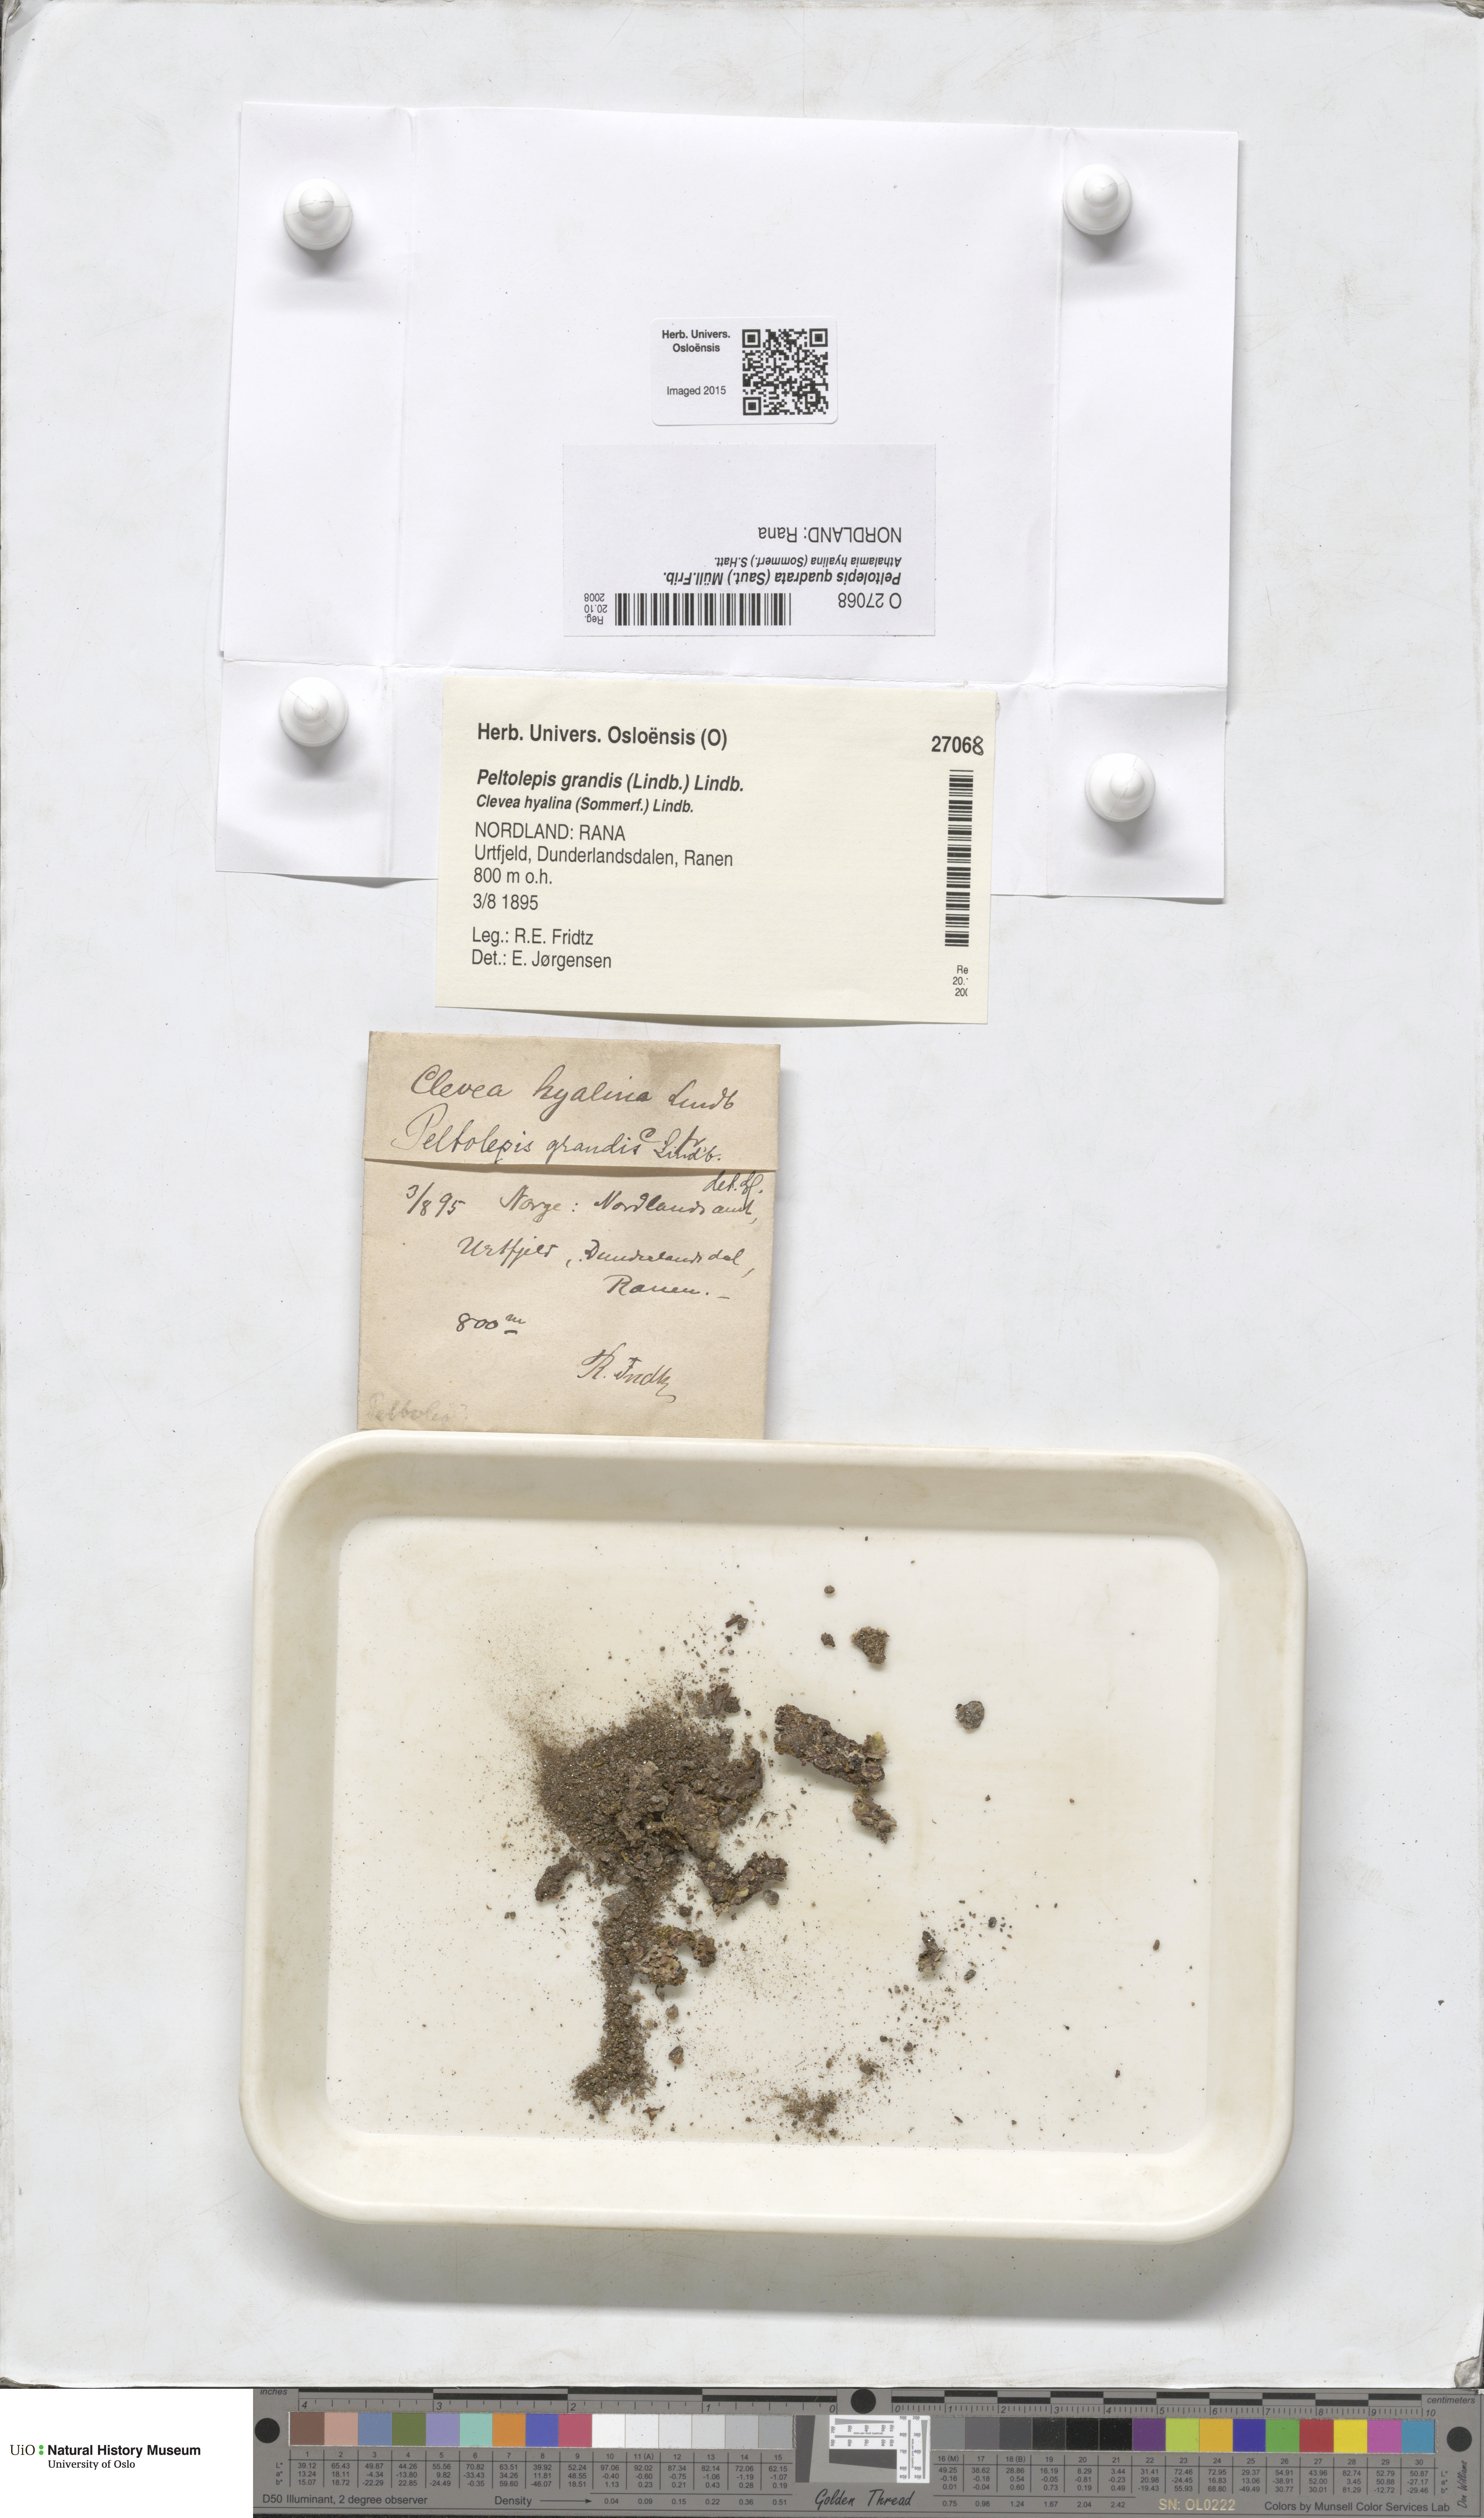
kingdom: Plantae
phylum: Marchantiophyta
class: Marchantiopsida
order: Marchantiales
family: Cleveaceae
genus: Peltolepis
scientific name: Peltolepis quadrata
